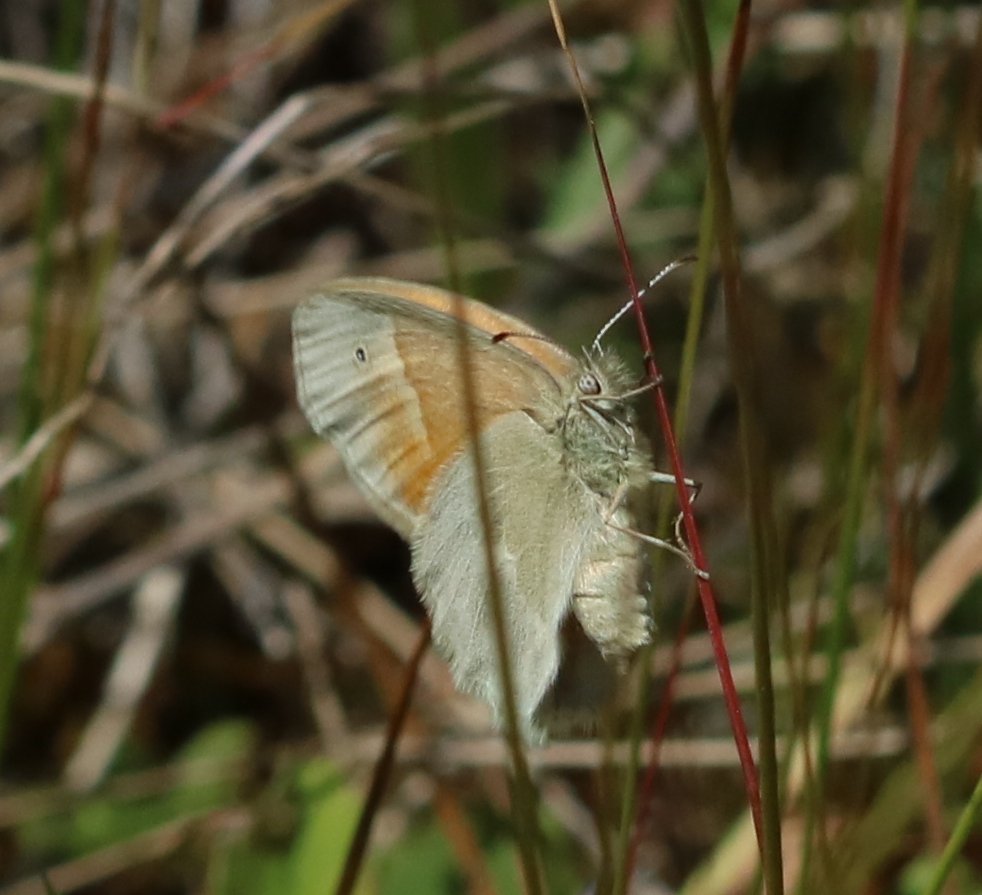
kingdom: Animalia
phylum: Arthropoda
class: Insecta
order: Lepidoptera
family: Nymphalidae
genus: Coenonympha
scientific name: Coenonympha tullia
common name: Large Heath
